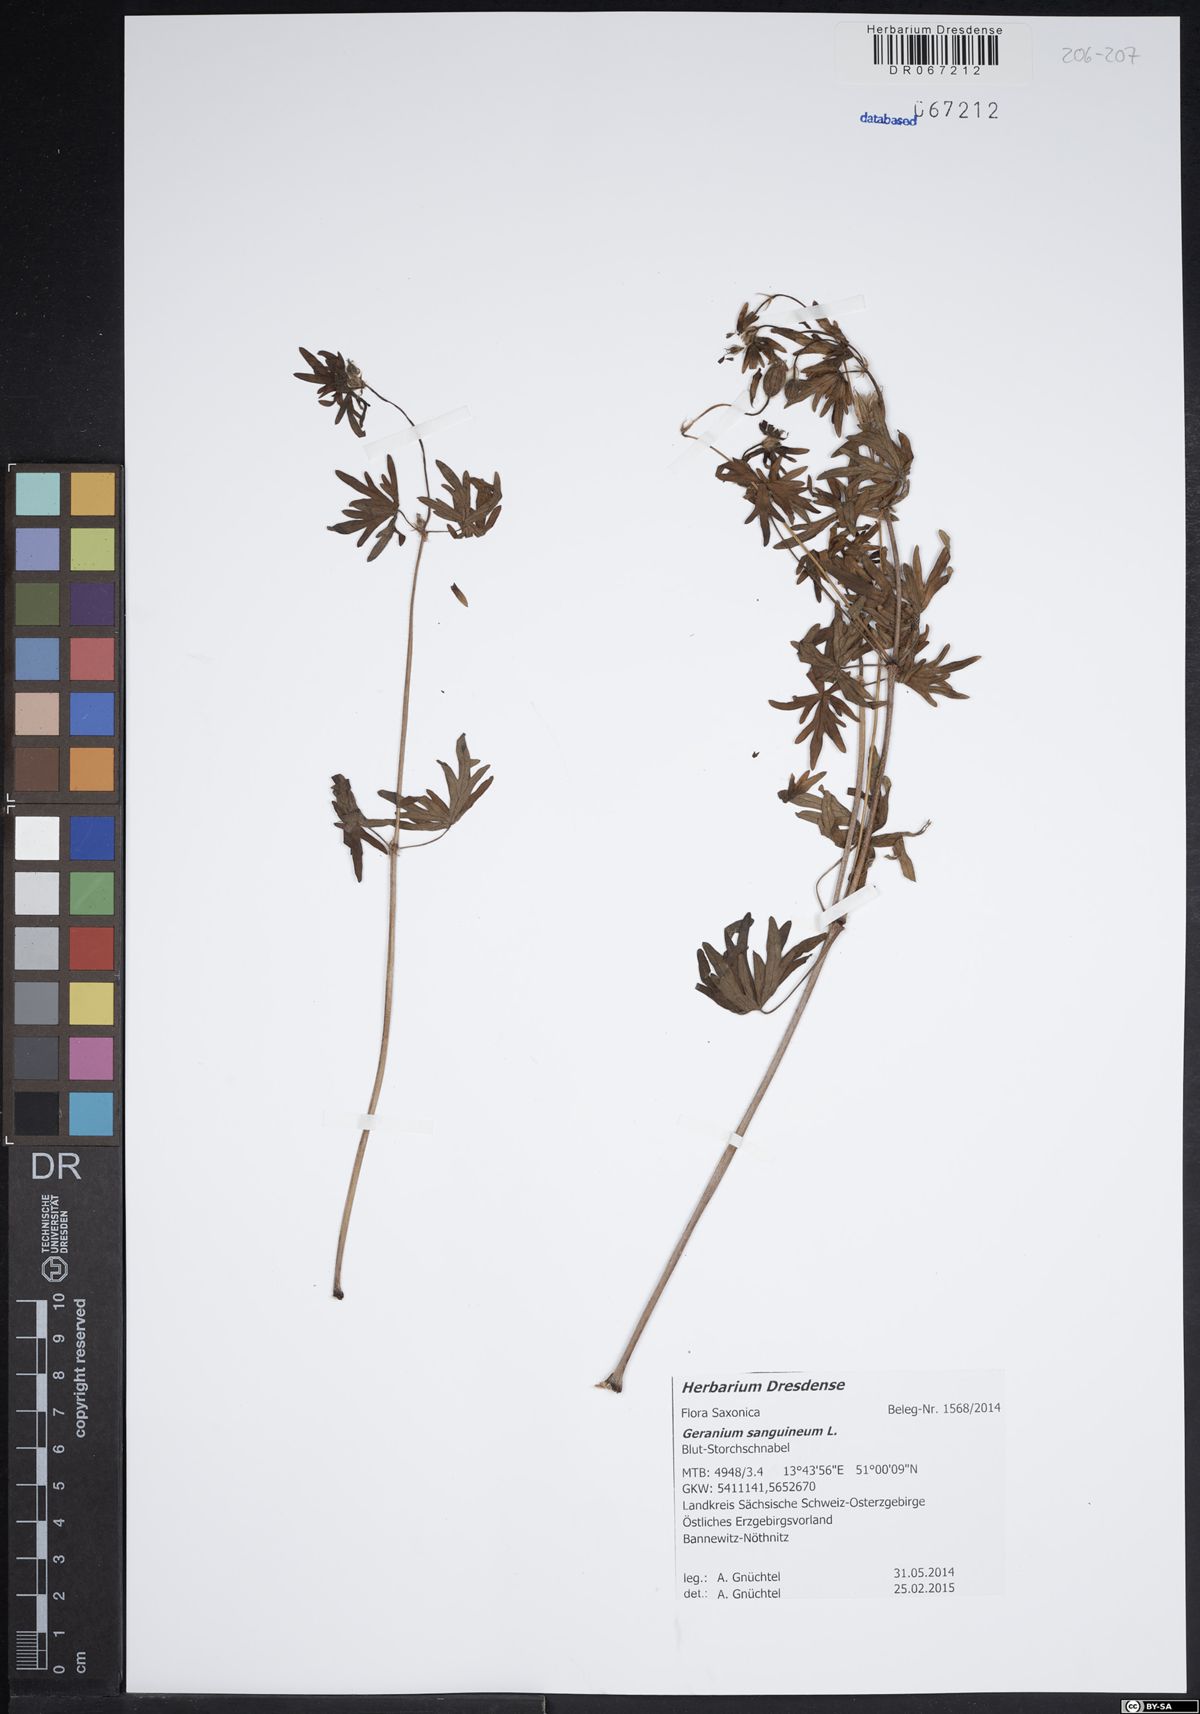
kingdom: Plantae
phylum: Tracheophyta
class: Magnoliopsida
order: Geraniales
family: Geraniaceae
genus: Geranium
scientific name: Geranium sanguineum
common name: Bloody crane's-bill
